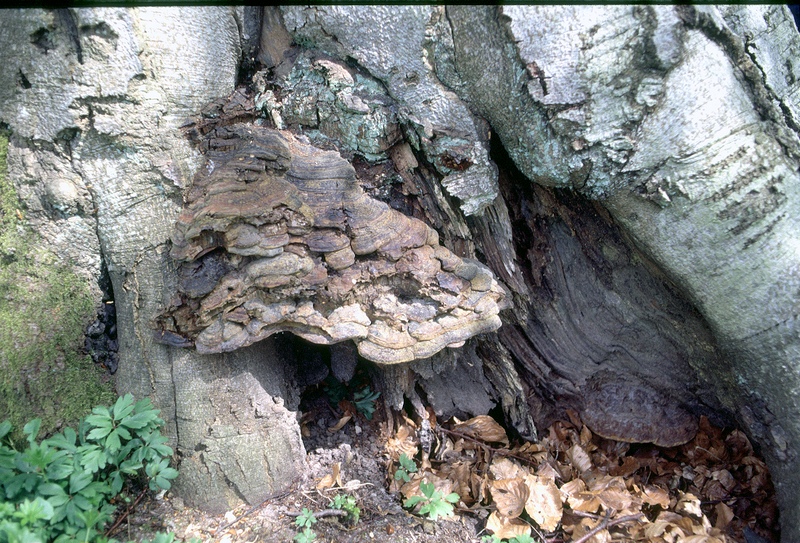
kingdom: Fungi
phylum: Basidiomycota
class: Agaricomycetes
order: Polyporales
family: Polyporaceae
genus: Ganoderma
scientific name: Ganoderma pfeifferi
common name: kobberrød lakporesvamp
